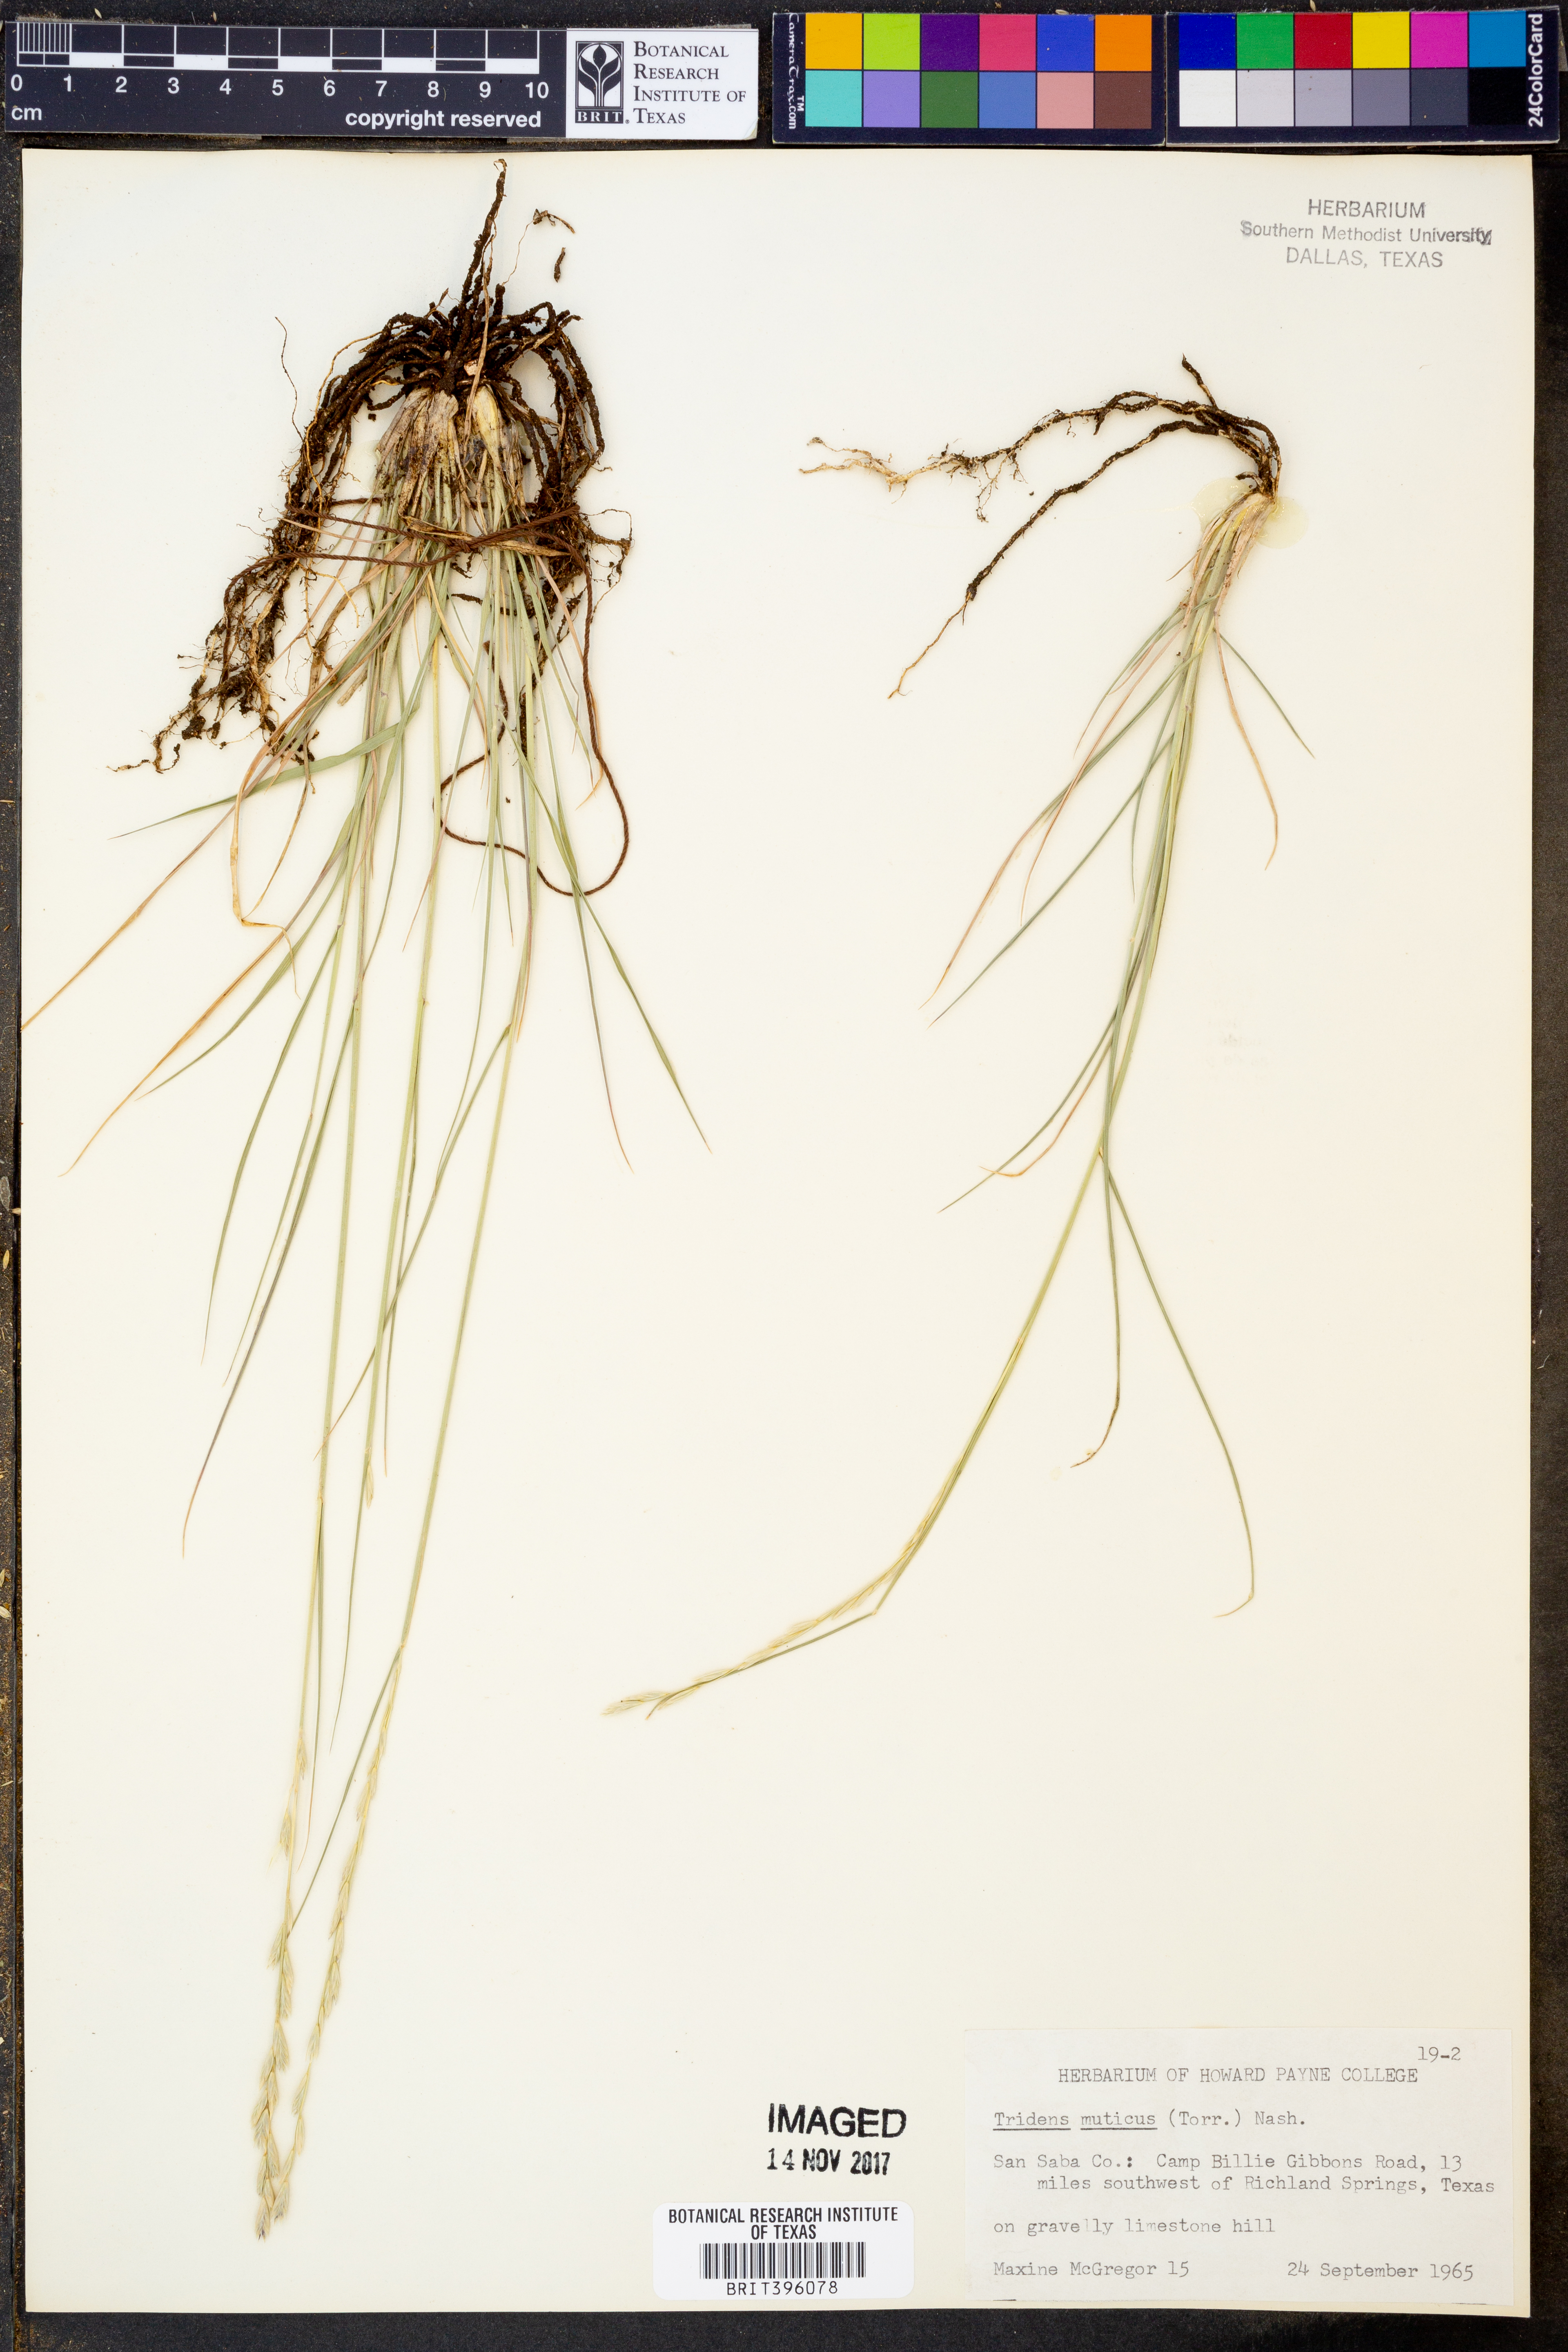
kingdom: Plantae
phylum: Tracheophyta
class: Liliopsida
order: Poales
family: Poaceae
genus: Tridentopsis
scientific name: Tridentopsis mutica
